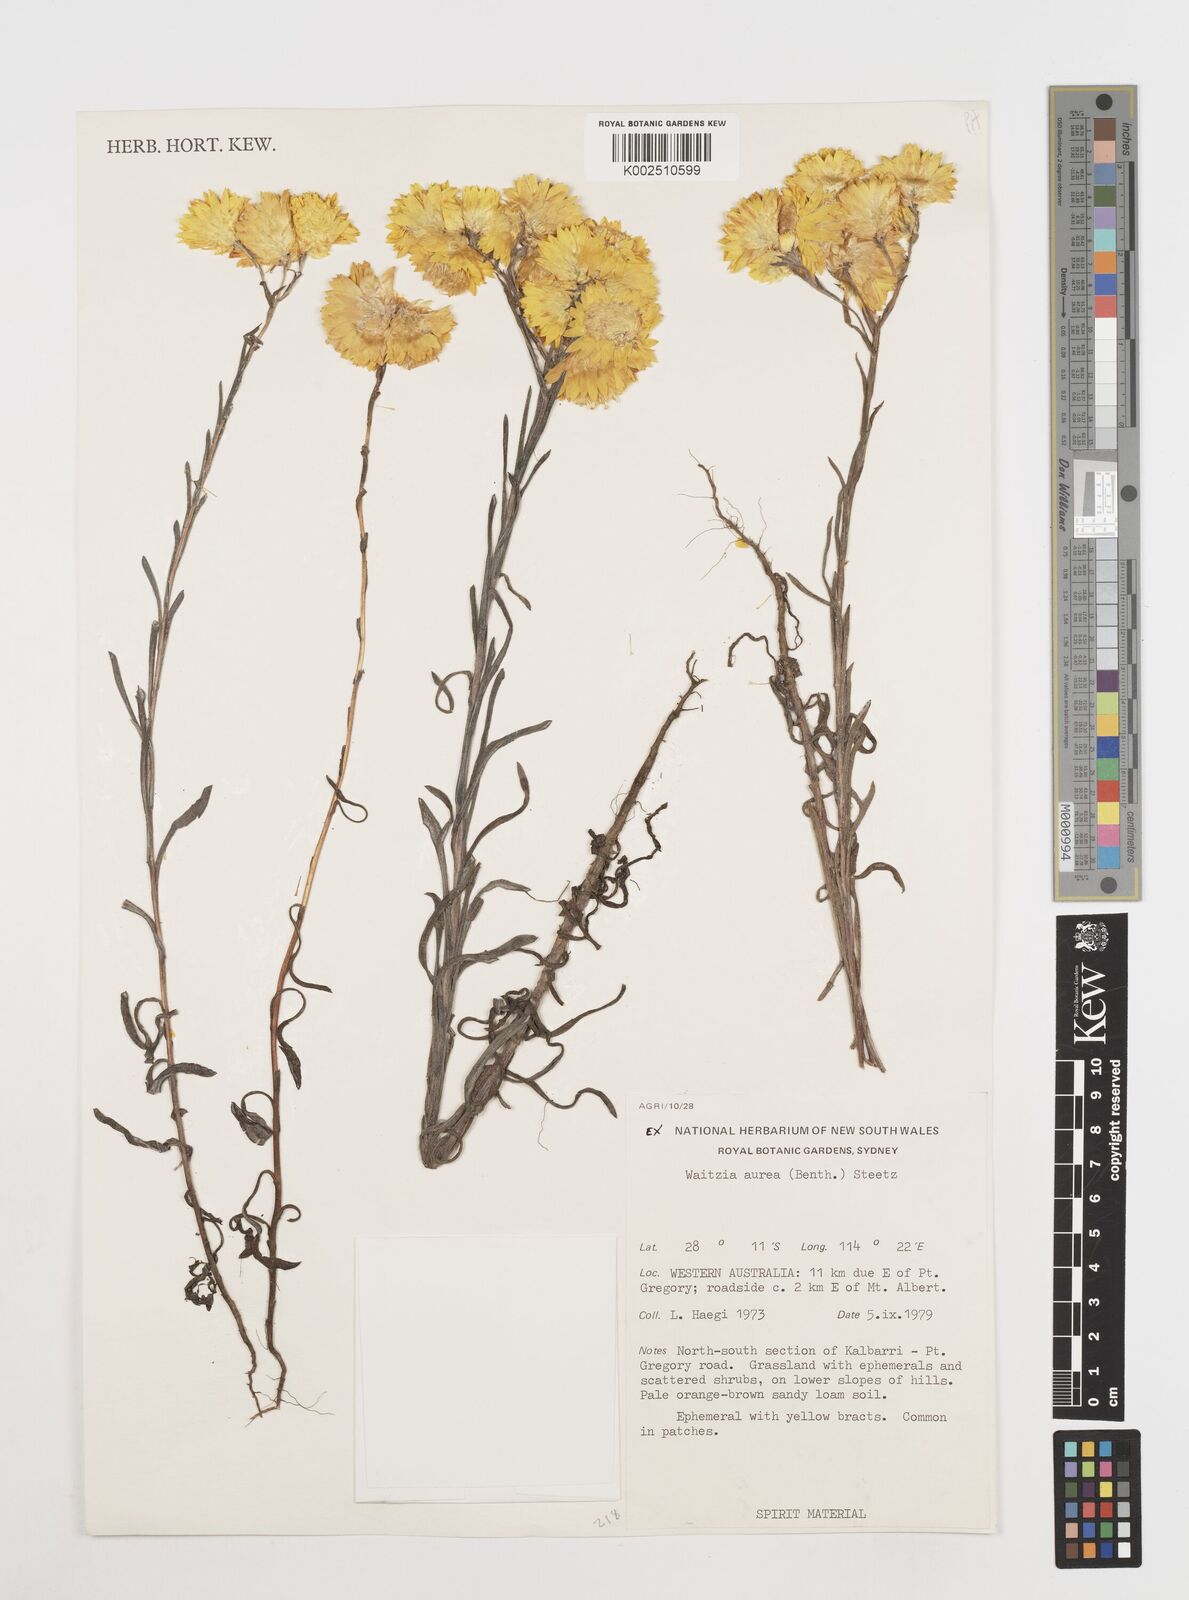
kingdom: Plantae
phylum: Tracheophyta
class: Magnoliopsida
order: Asterales
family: Asteraceae
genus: Waitzia
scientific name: Waitzia nitida
